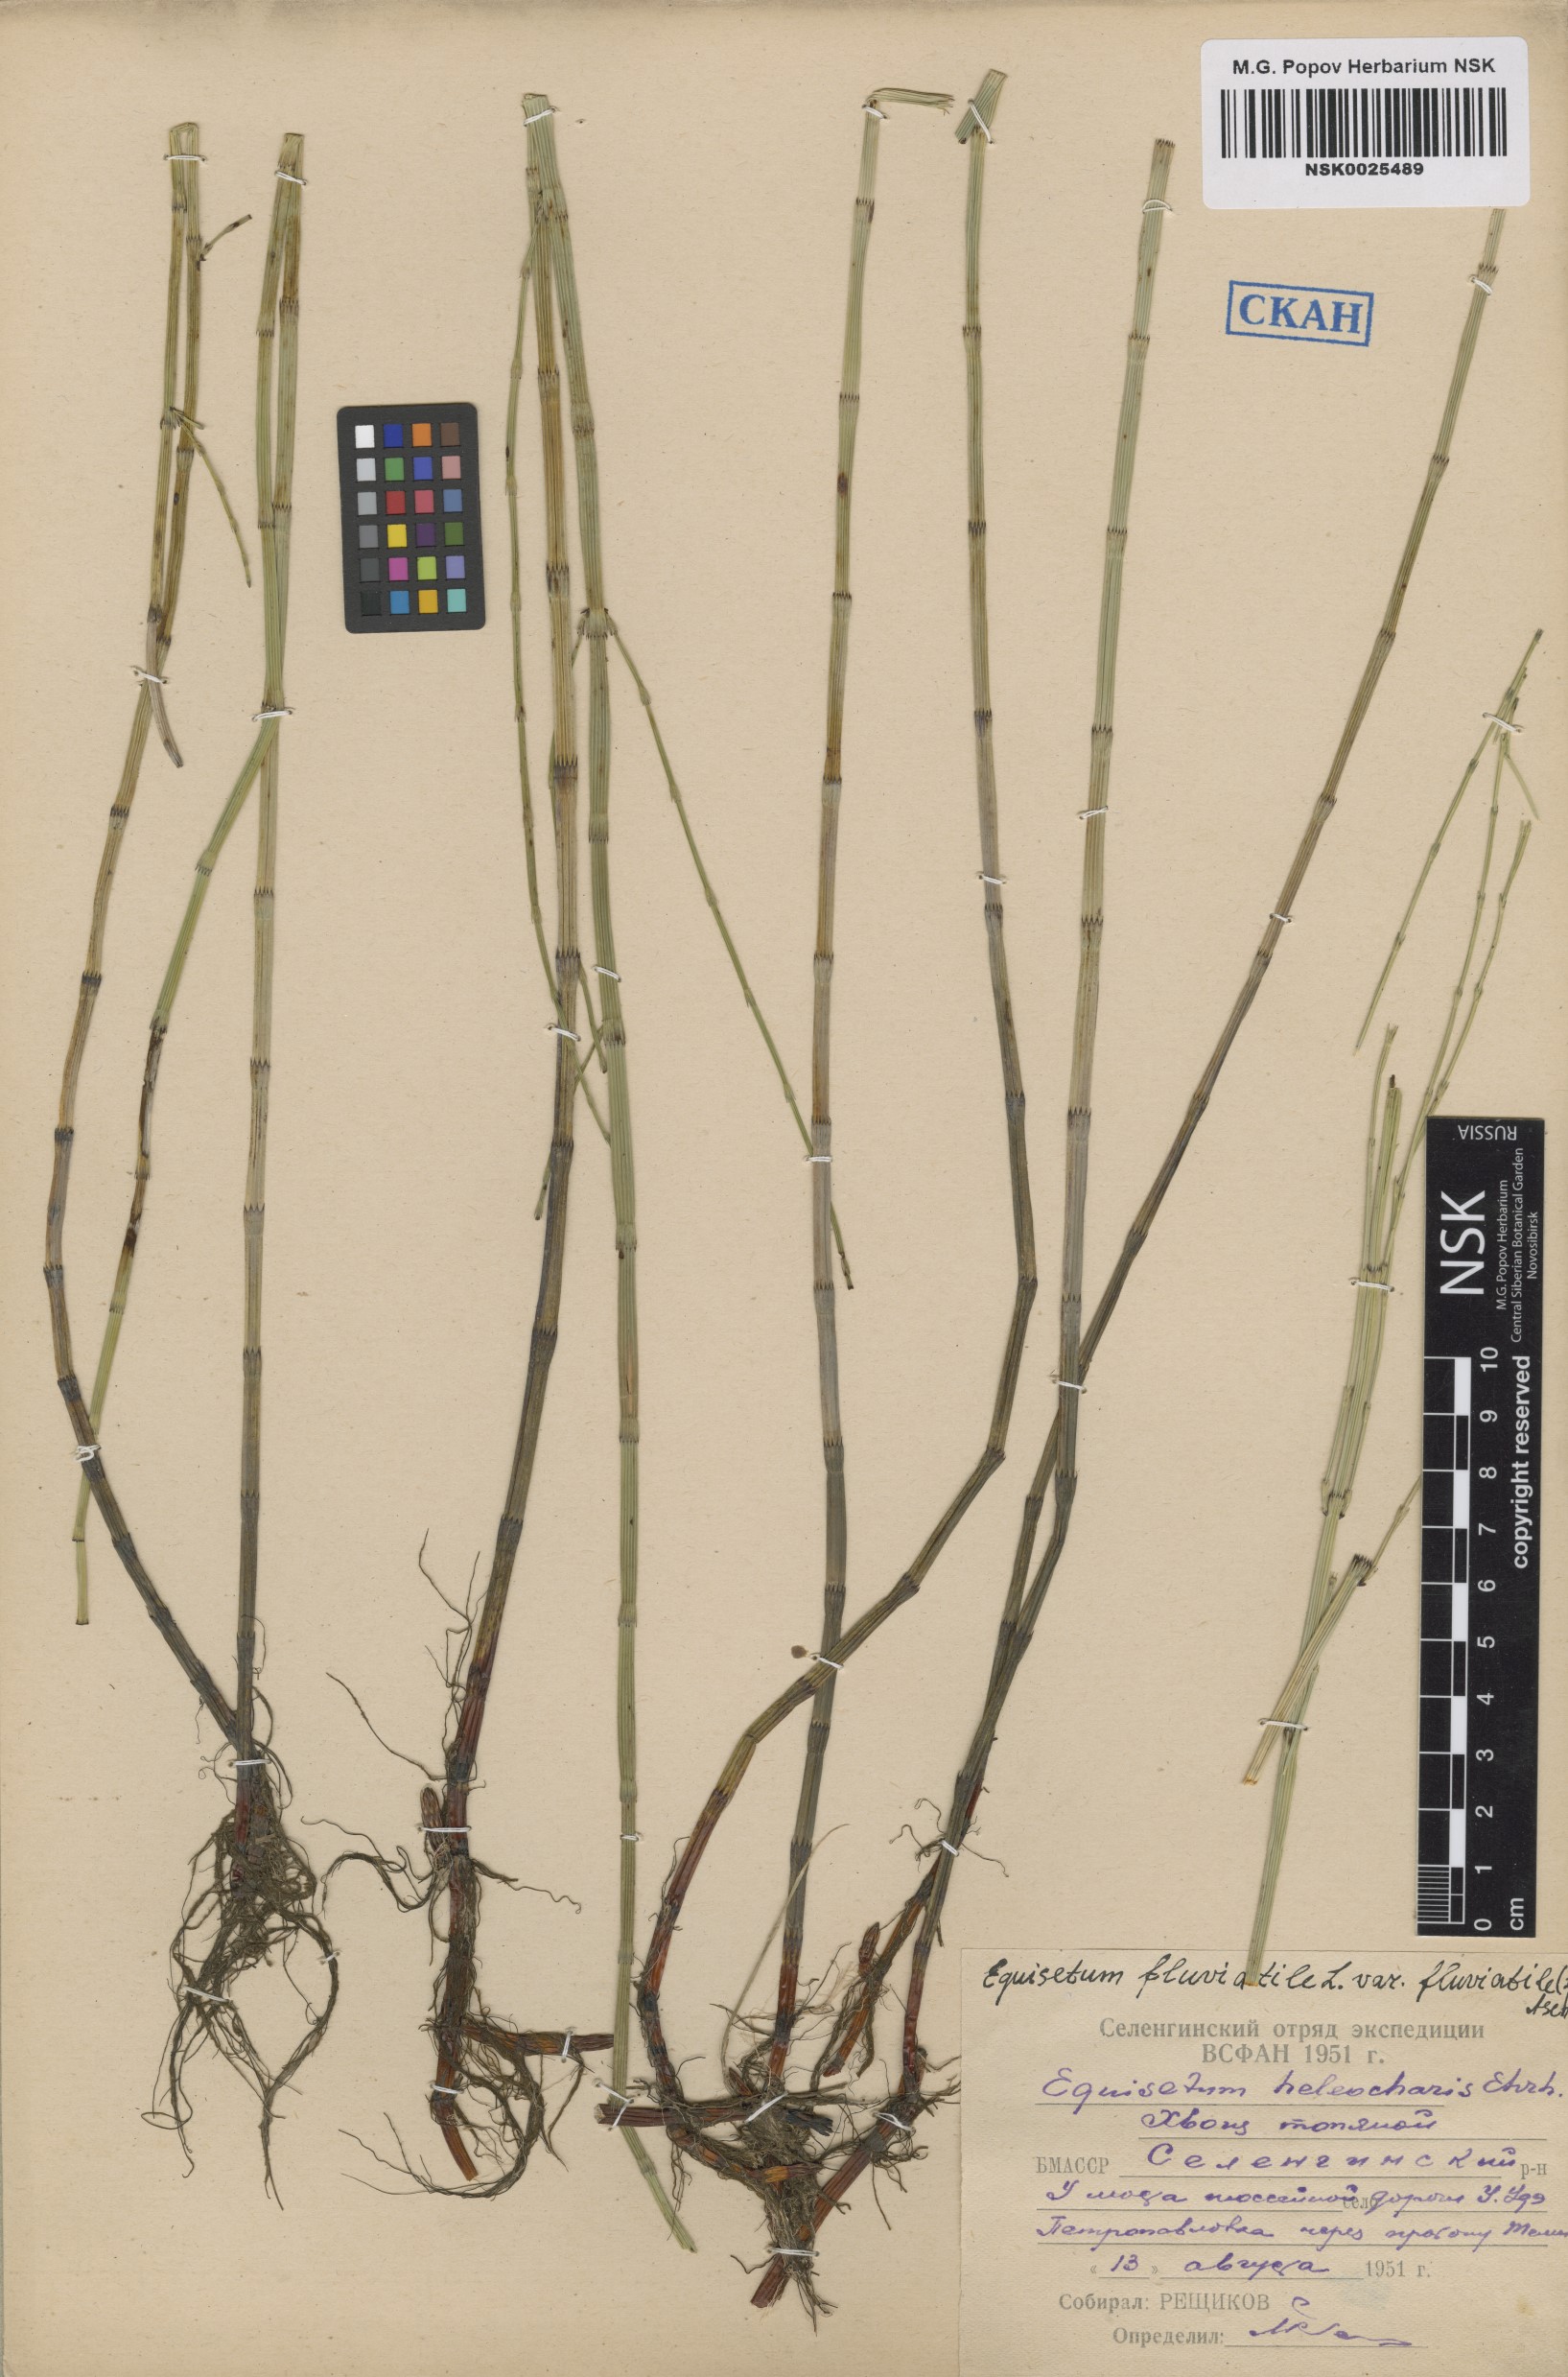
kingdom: Plantae
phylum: Tracheophyta
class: Polypodiopsida
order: Equisetales
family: Equisetaceae
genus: Equisetum
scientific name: Equisetum fluviatile
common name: Water horsetail
